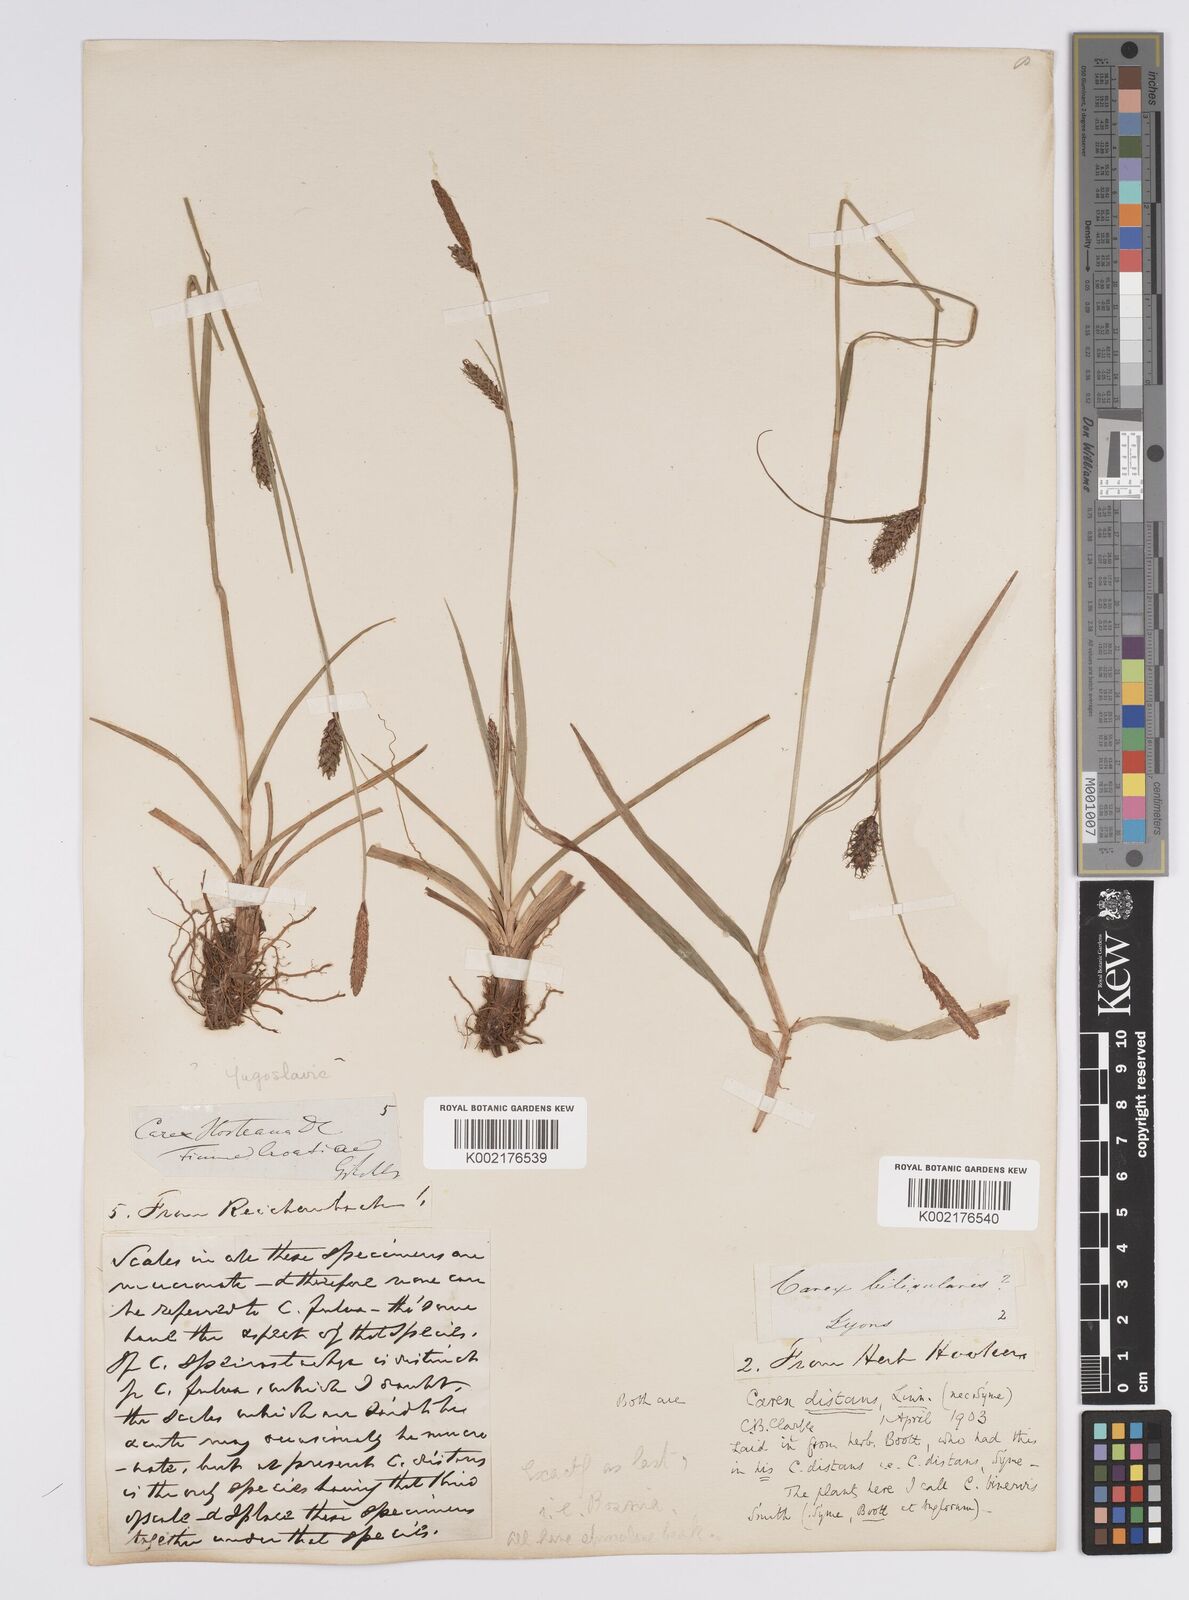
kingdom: Plantae
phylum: Tracheophyta
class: Liliopsida
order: Poales
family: Cyperaceae
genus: Carex
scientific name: Carex distans
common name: Distant sedge
